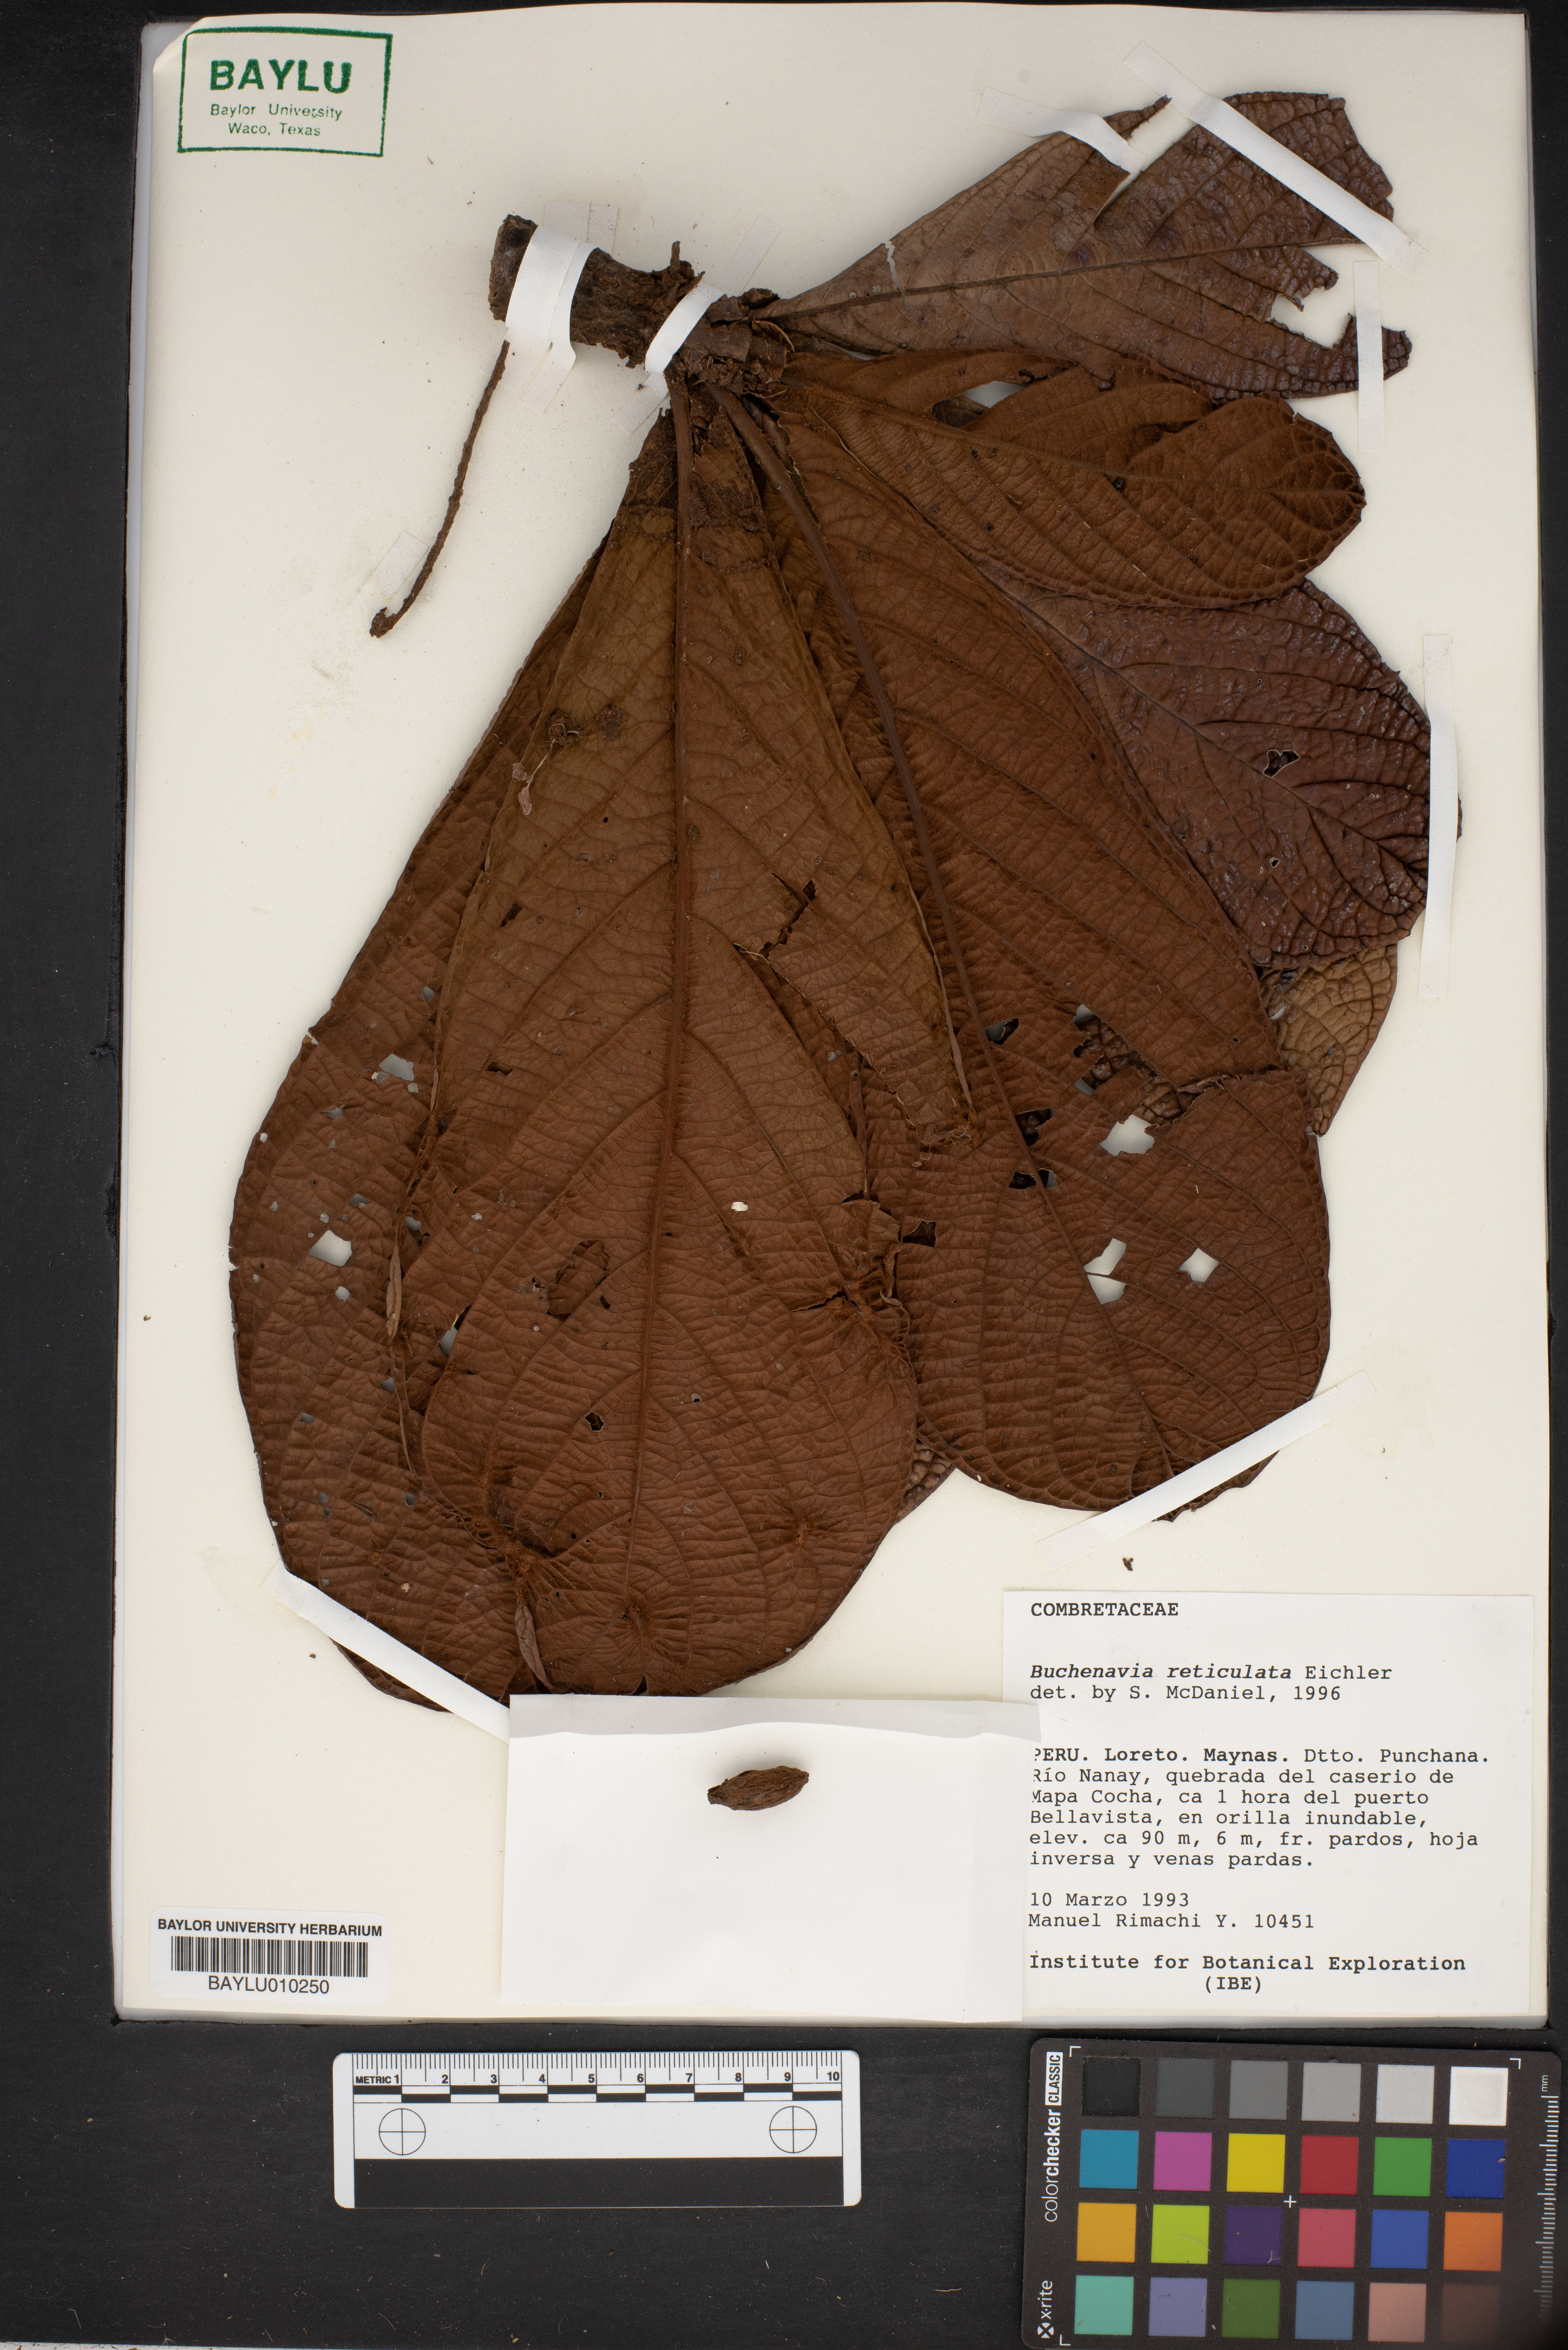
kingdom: Plantae
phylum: Tracheophyta
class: Magnoliopsida
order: Myrtales
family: Combretaceae
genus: Terminalia
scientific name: Terminalia pulcherrima
